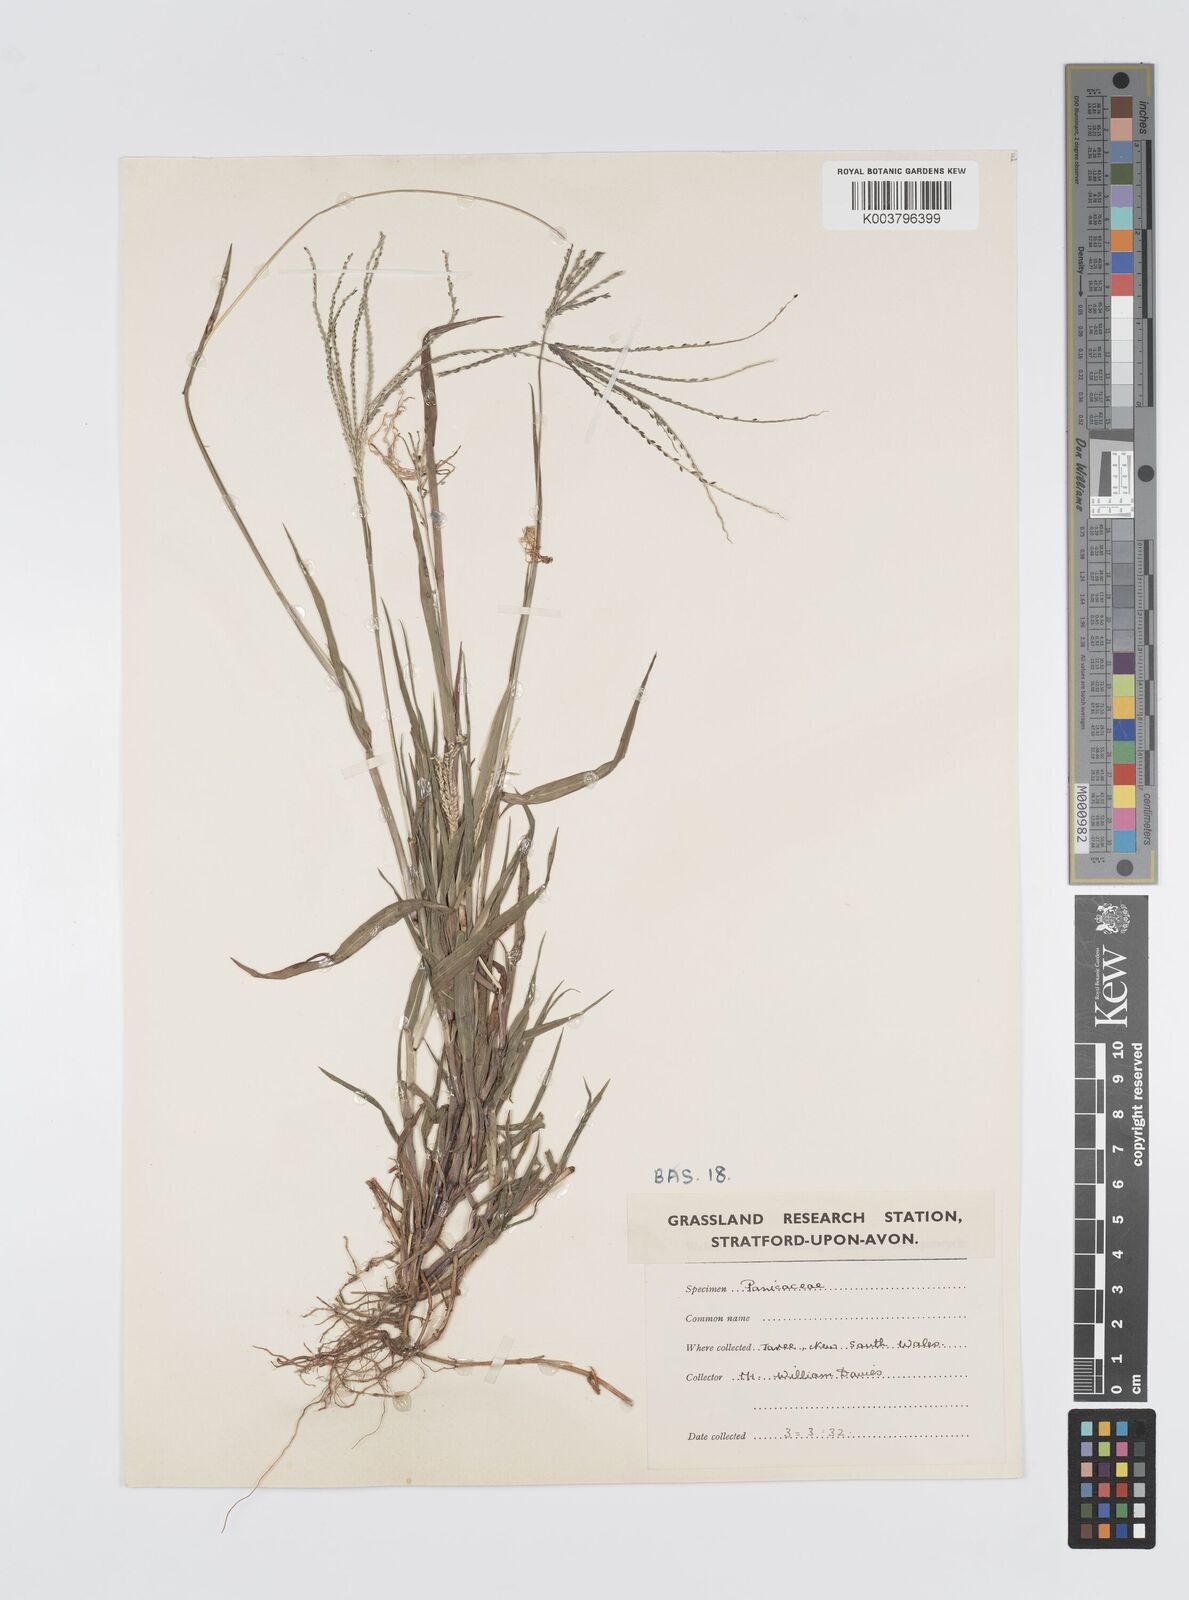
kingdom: Plantae
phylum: Tracheophyta
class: Liliopsida
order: Poales
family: Poaceae
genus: Digitaria
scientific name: Digitaria violascens
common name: Violet crabgrass
